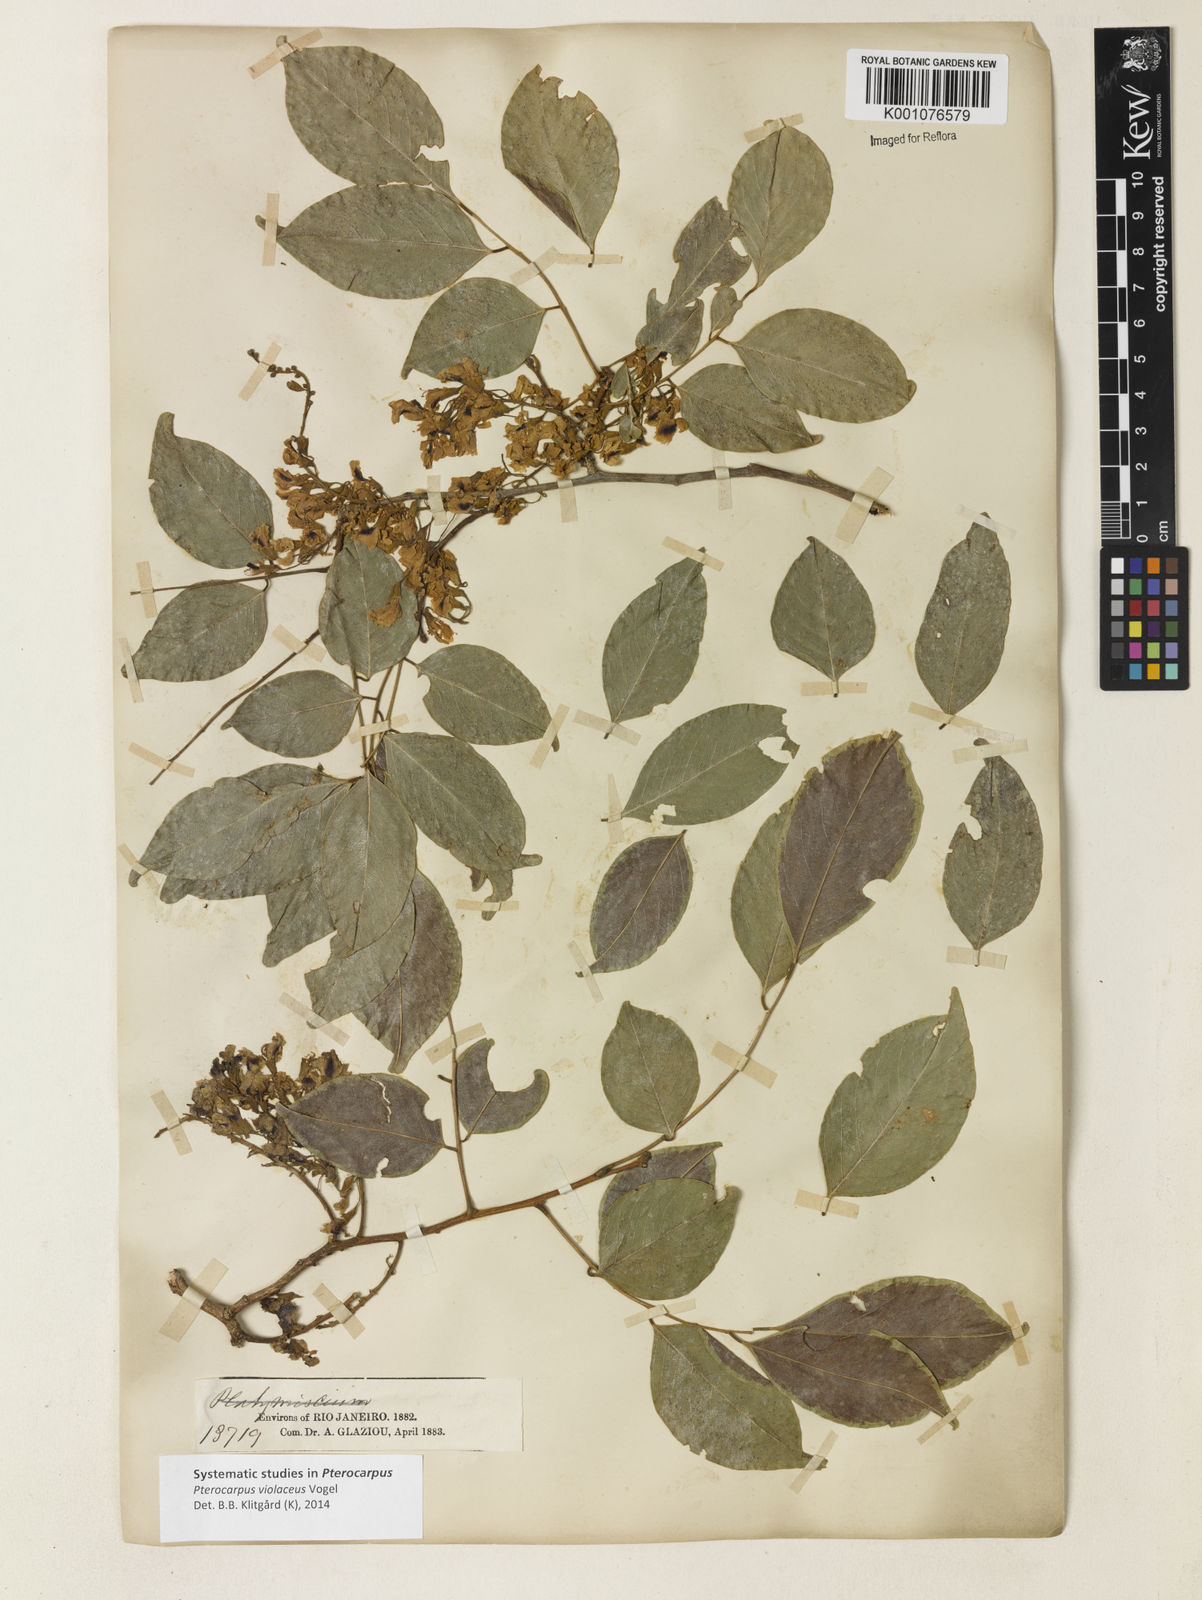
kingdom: Plantae
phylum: Tracheophyta
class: Magnoliopsida
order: Fabales
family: Fabaceae
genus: Pterocarpus
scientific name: Pterocarpus rohrii
